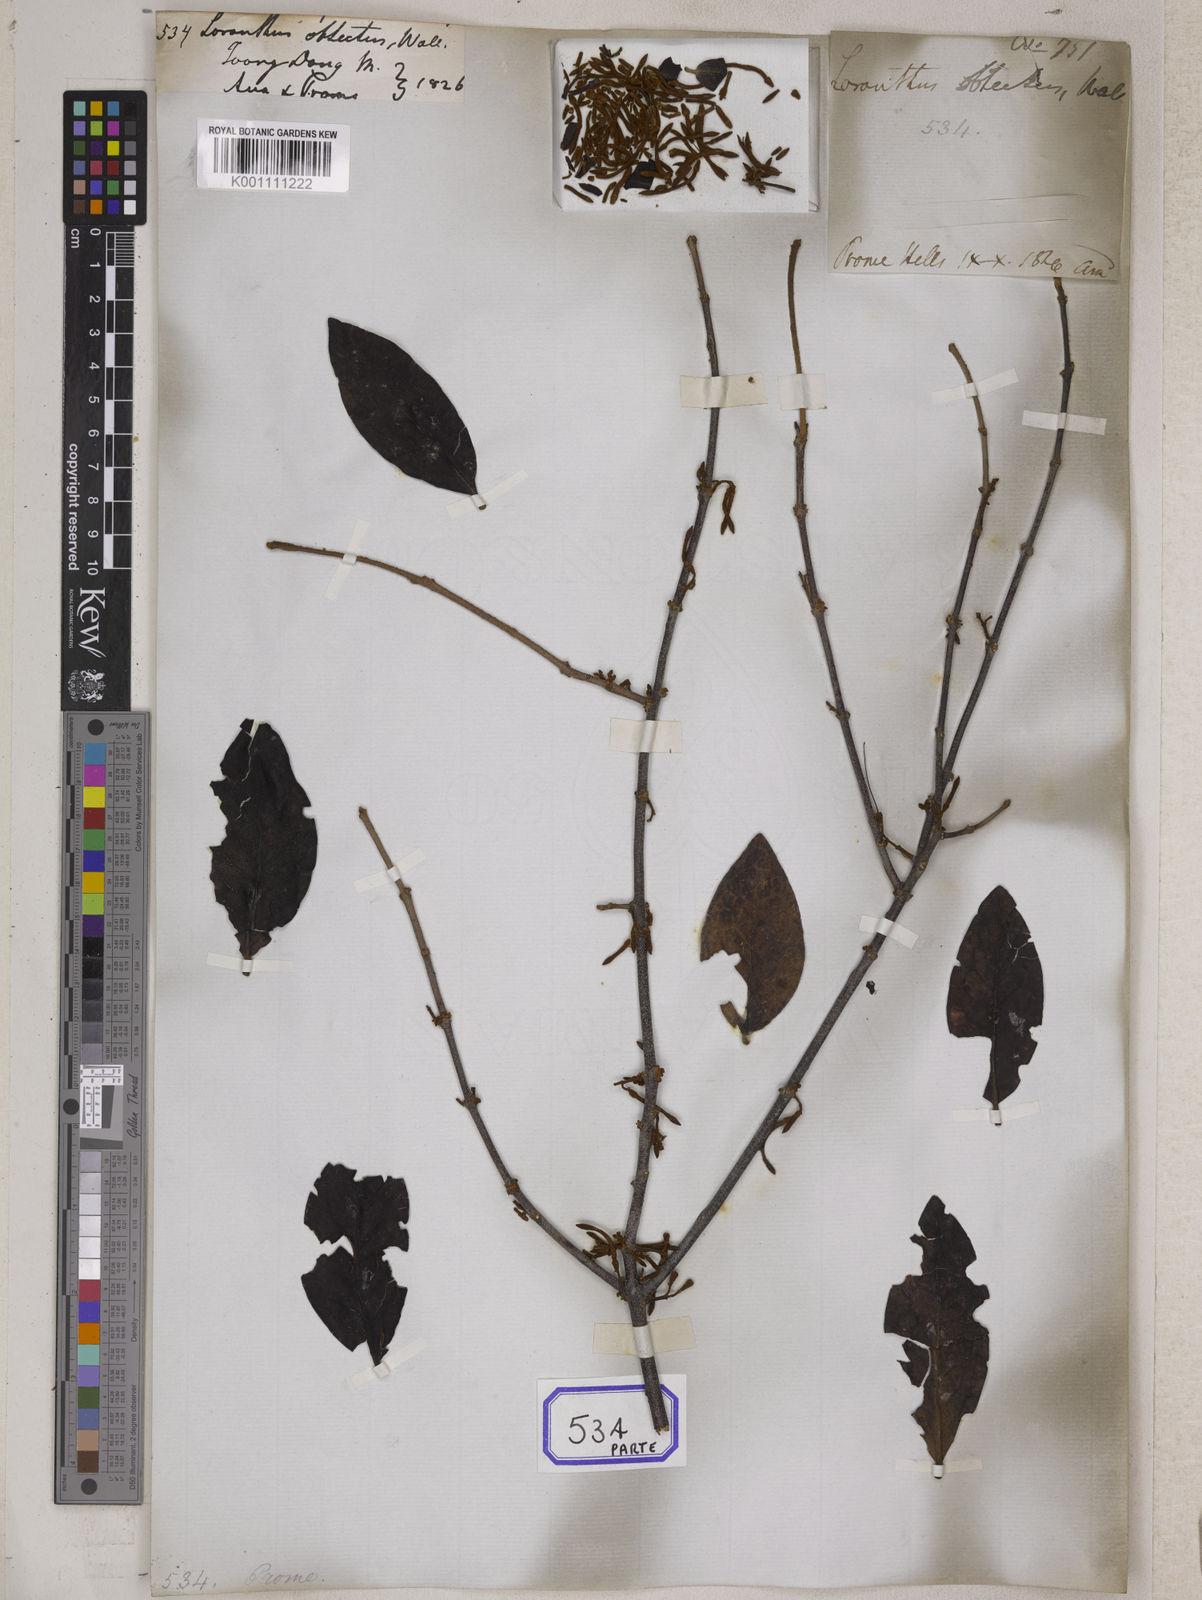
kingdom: Plantae
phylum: Tracheophyta
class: Magnoliopsida
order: Santalales
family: Loranthaceae
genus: Scurrula
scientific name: Scurrula parasitica
